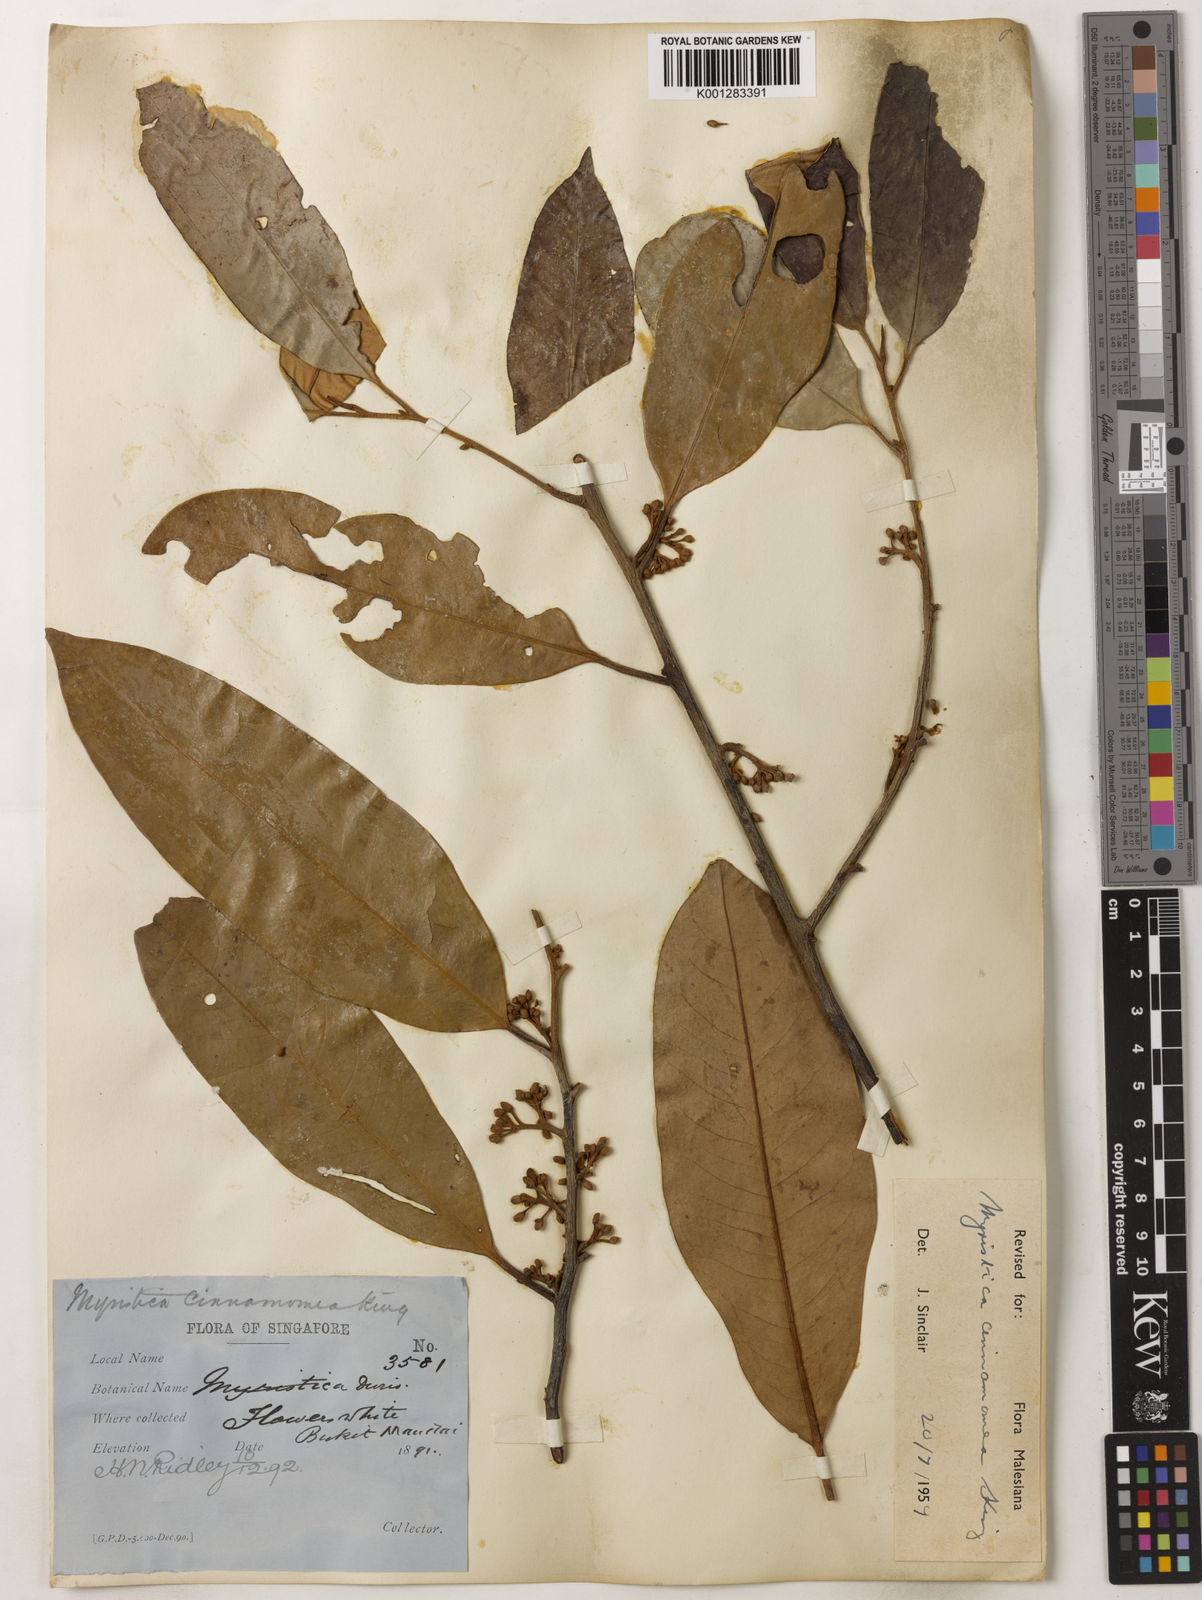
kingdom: Plantae
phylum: Tracheophyta
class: Magnoliopsida
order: Magnoliales
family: Myristicaceae
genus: Myristica
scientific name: Myristica cinnamomea
